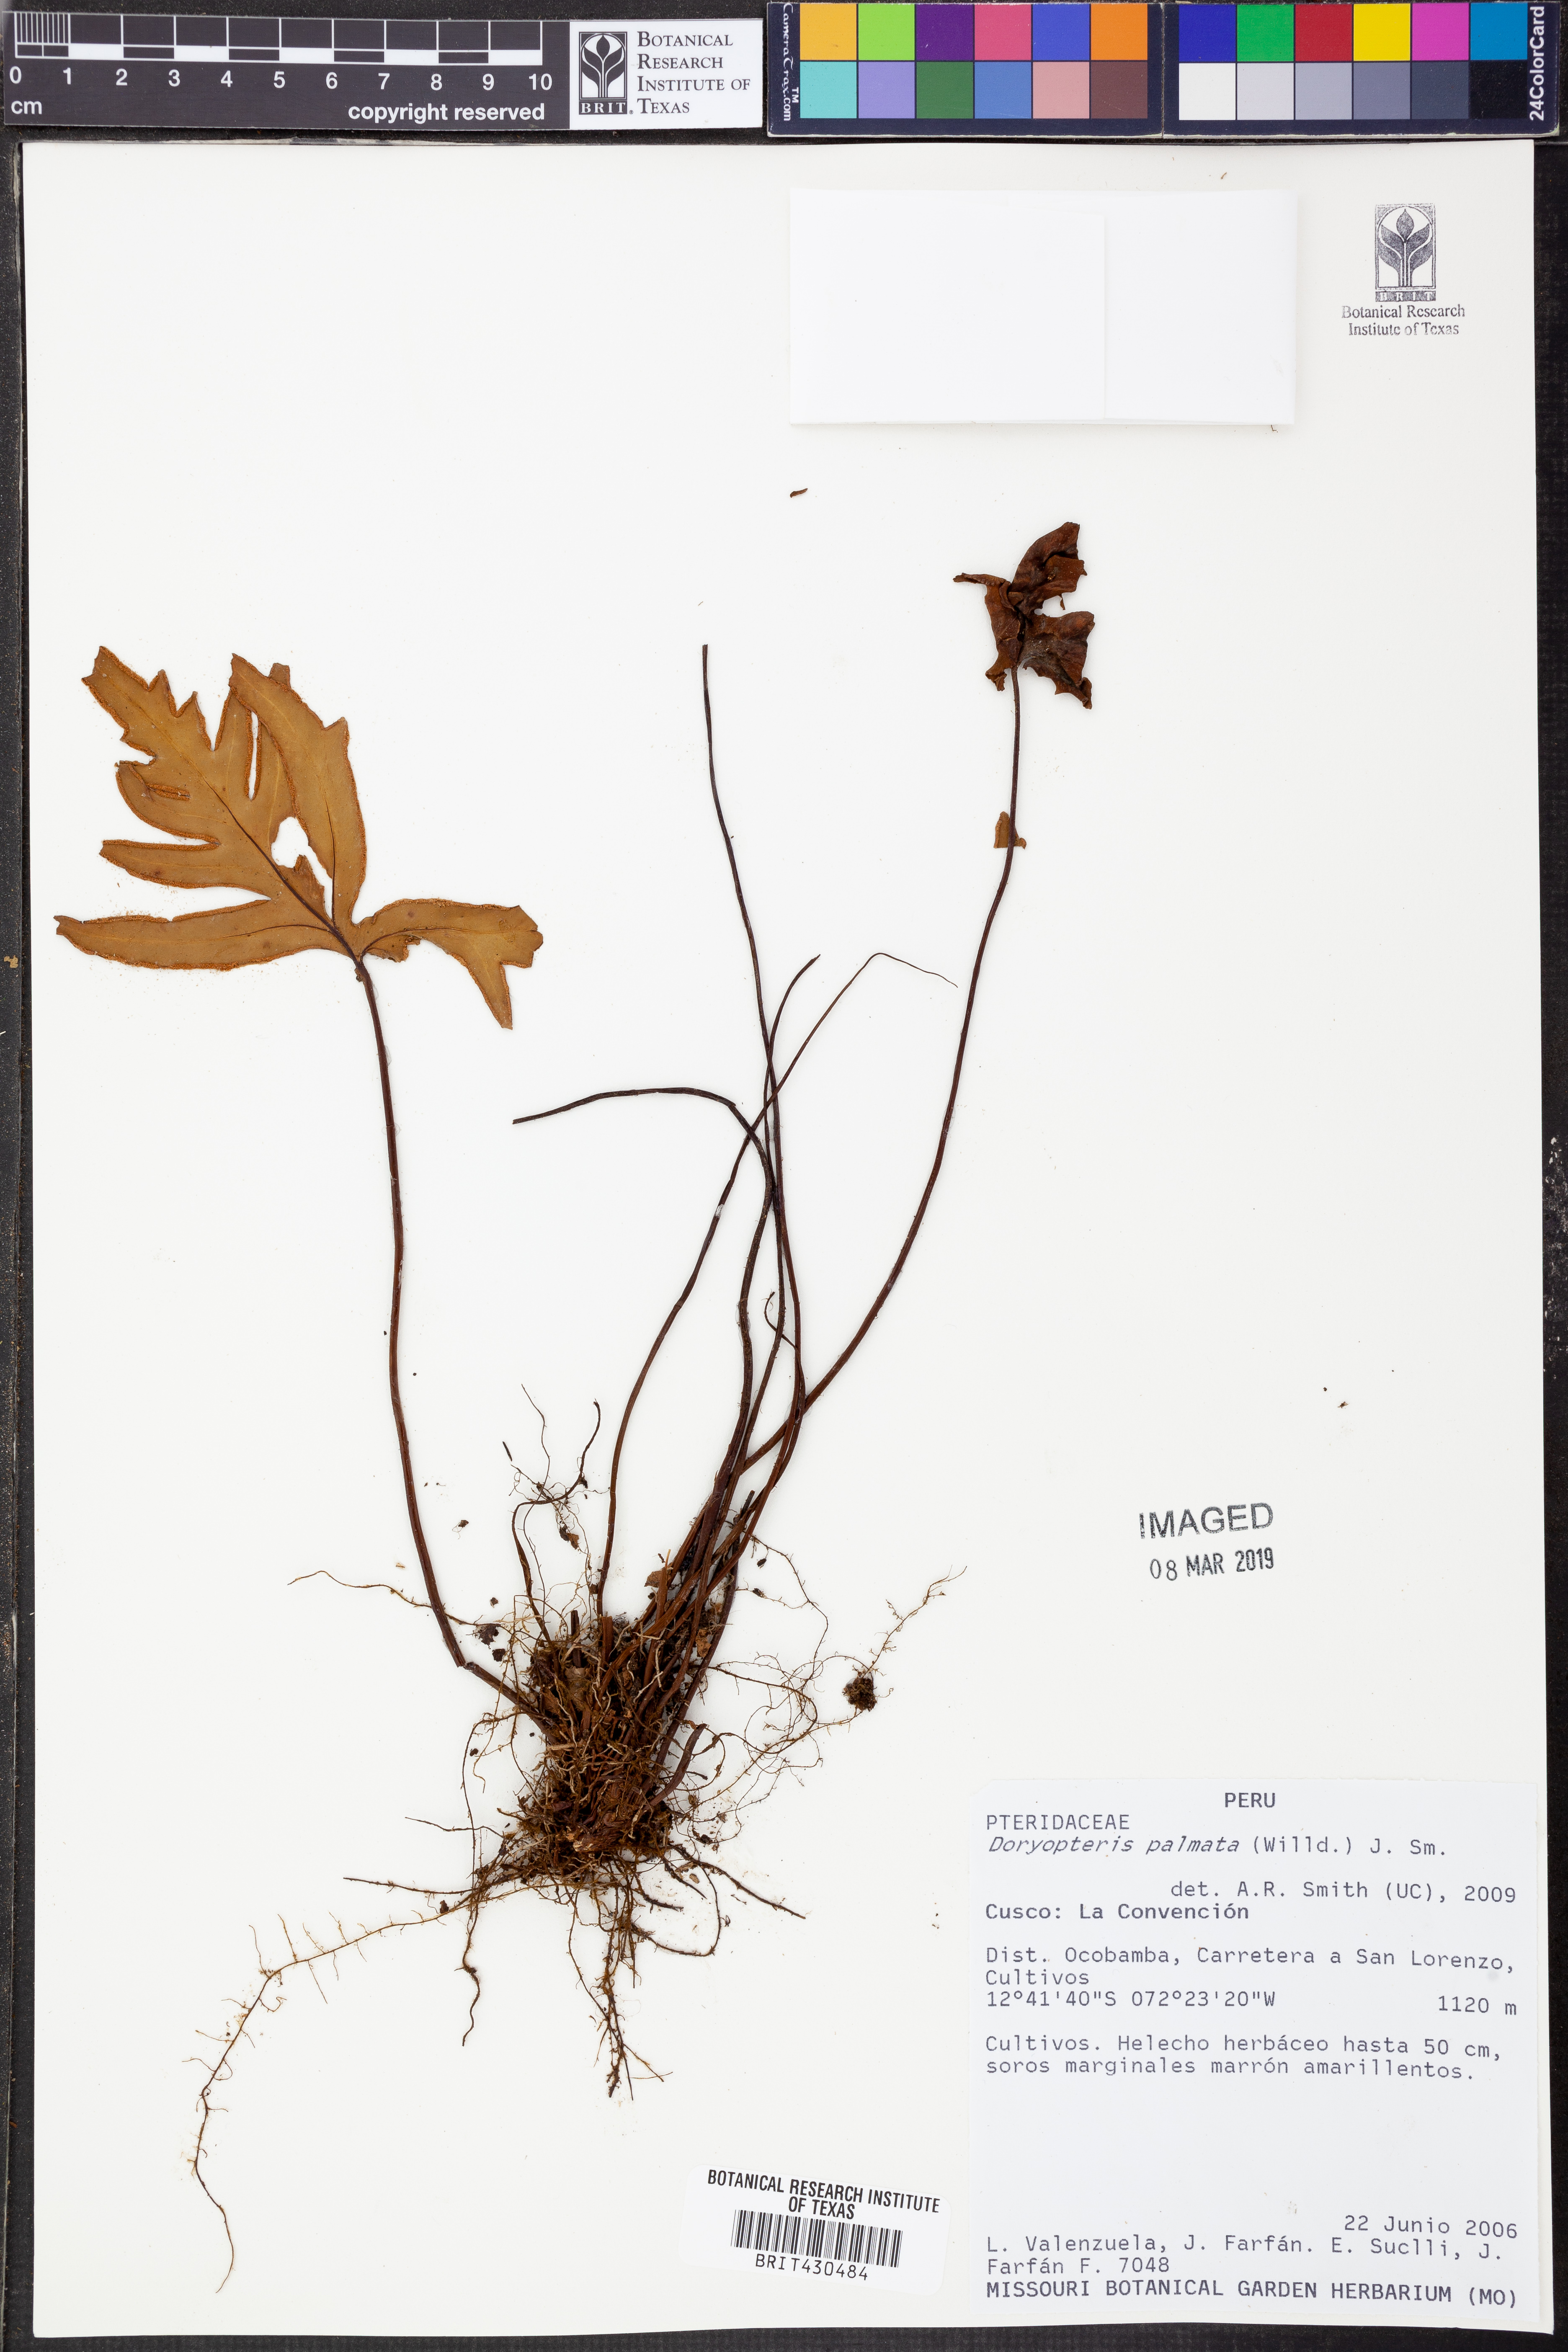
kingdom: Plantae
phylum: Tracheophyta
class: Polypodiopsida
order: Polypodiales
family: Pteridaceae
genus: Doryopteris
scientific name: Doryopteris palmata
